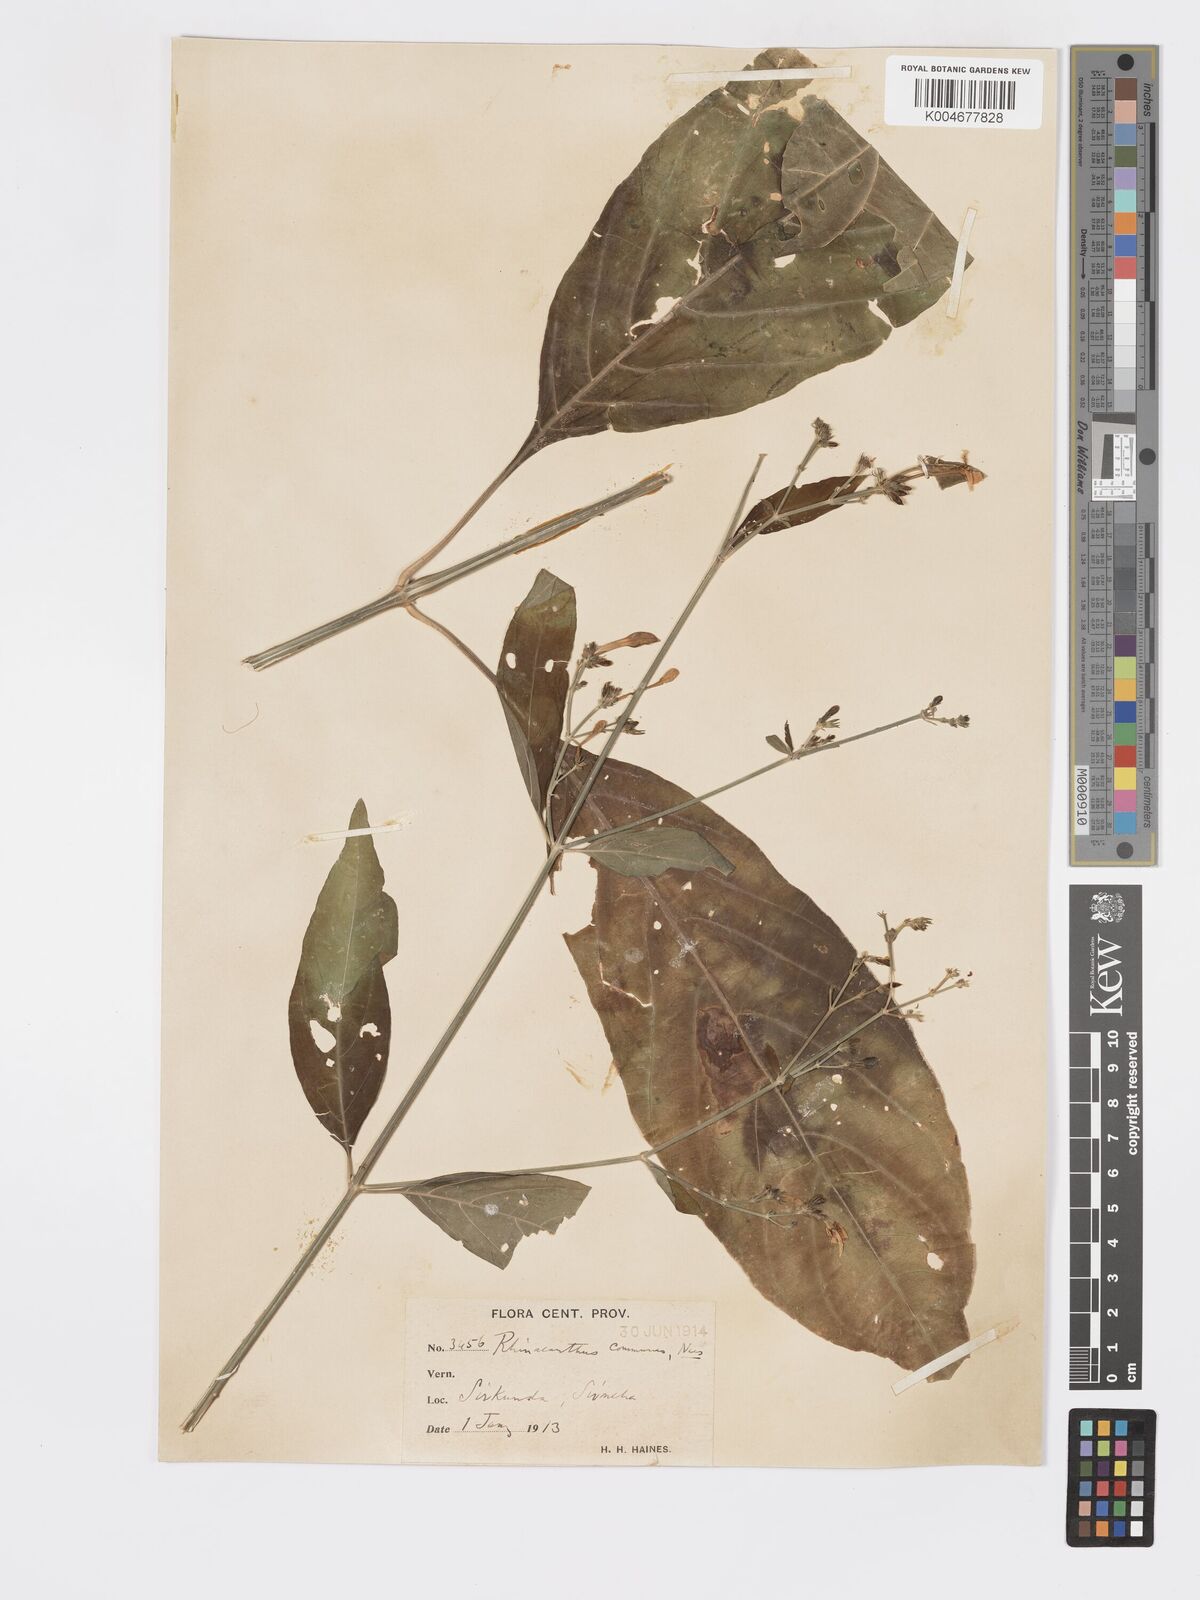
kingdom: Plantae
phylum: Tracheophyta
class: Magnoliopsida
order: Lamiales
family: Acanthaceae
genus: Rhinacanthus
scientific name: Rhinacanthus nasutus
